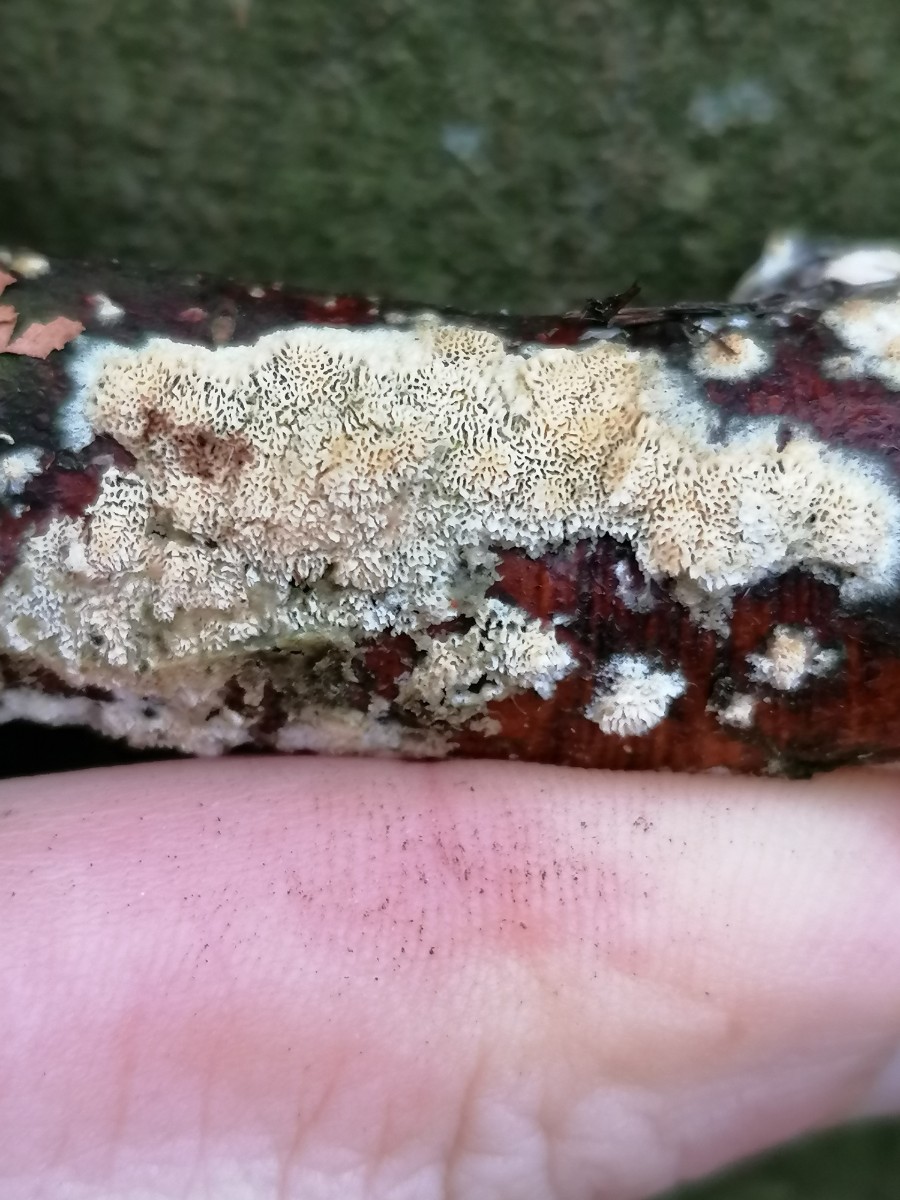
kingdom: Fungi
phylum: Basidiomycota
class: Agaricomycetes
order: Hymenochaetales
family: Schizoporaceae
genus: Xylodon
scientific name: Xylodon subtropicus
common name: labyrint-tandsvamp
